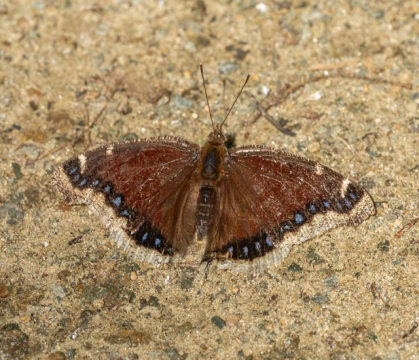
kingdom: Animalia
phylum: Arthropoda
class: Insecta
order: Lepidoptera
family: Nymphalidae
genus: Nymphalis
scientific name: Nymphalis antiopa
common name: Mourning Cloak
